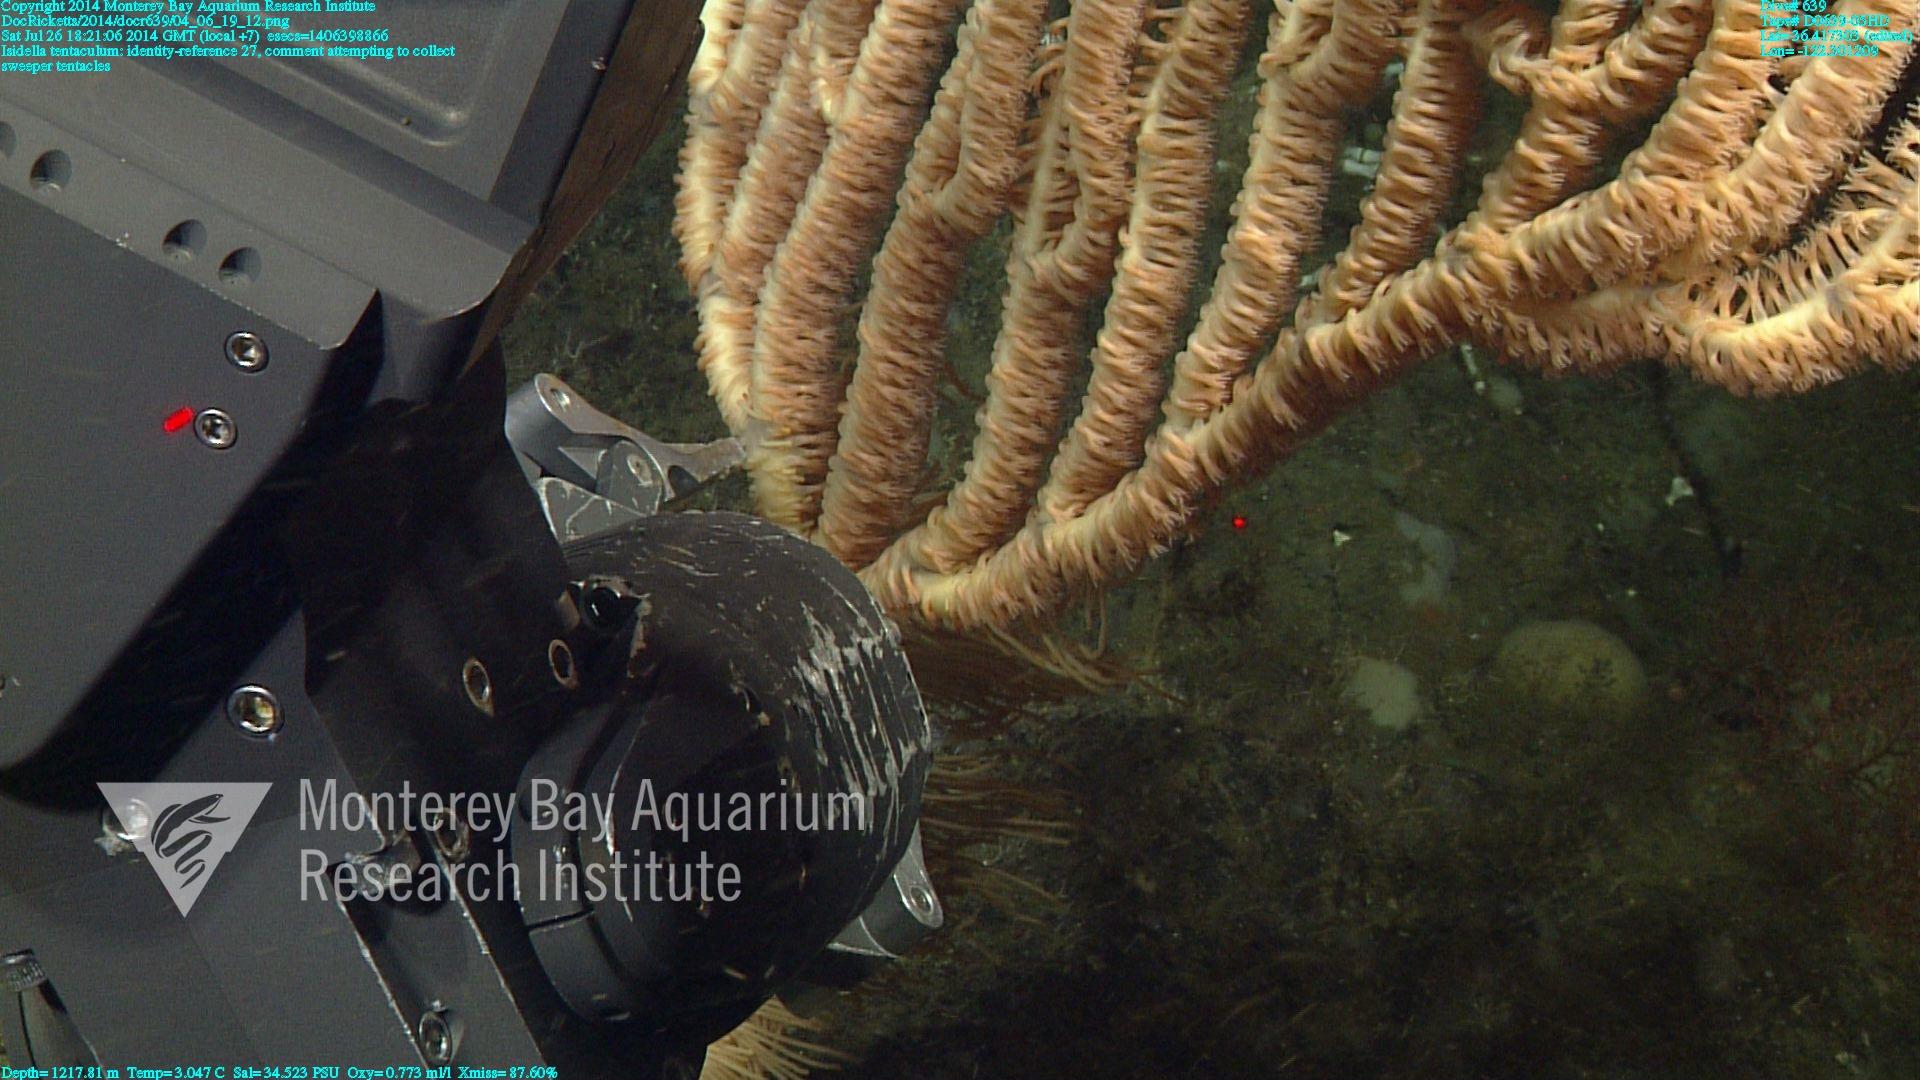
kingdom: Animalia
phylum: Cnidaria
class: Anthozoa
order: Scleralcyonacea
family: Keratoisididae
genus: Isidella
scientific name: Isidella tentaculum
